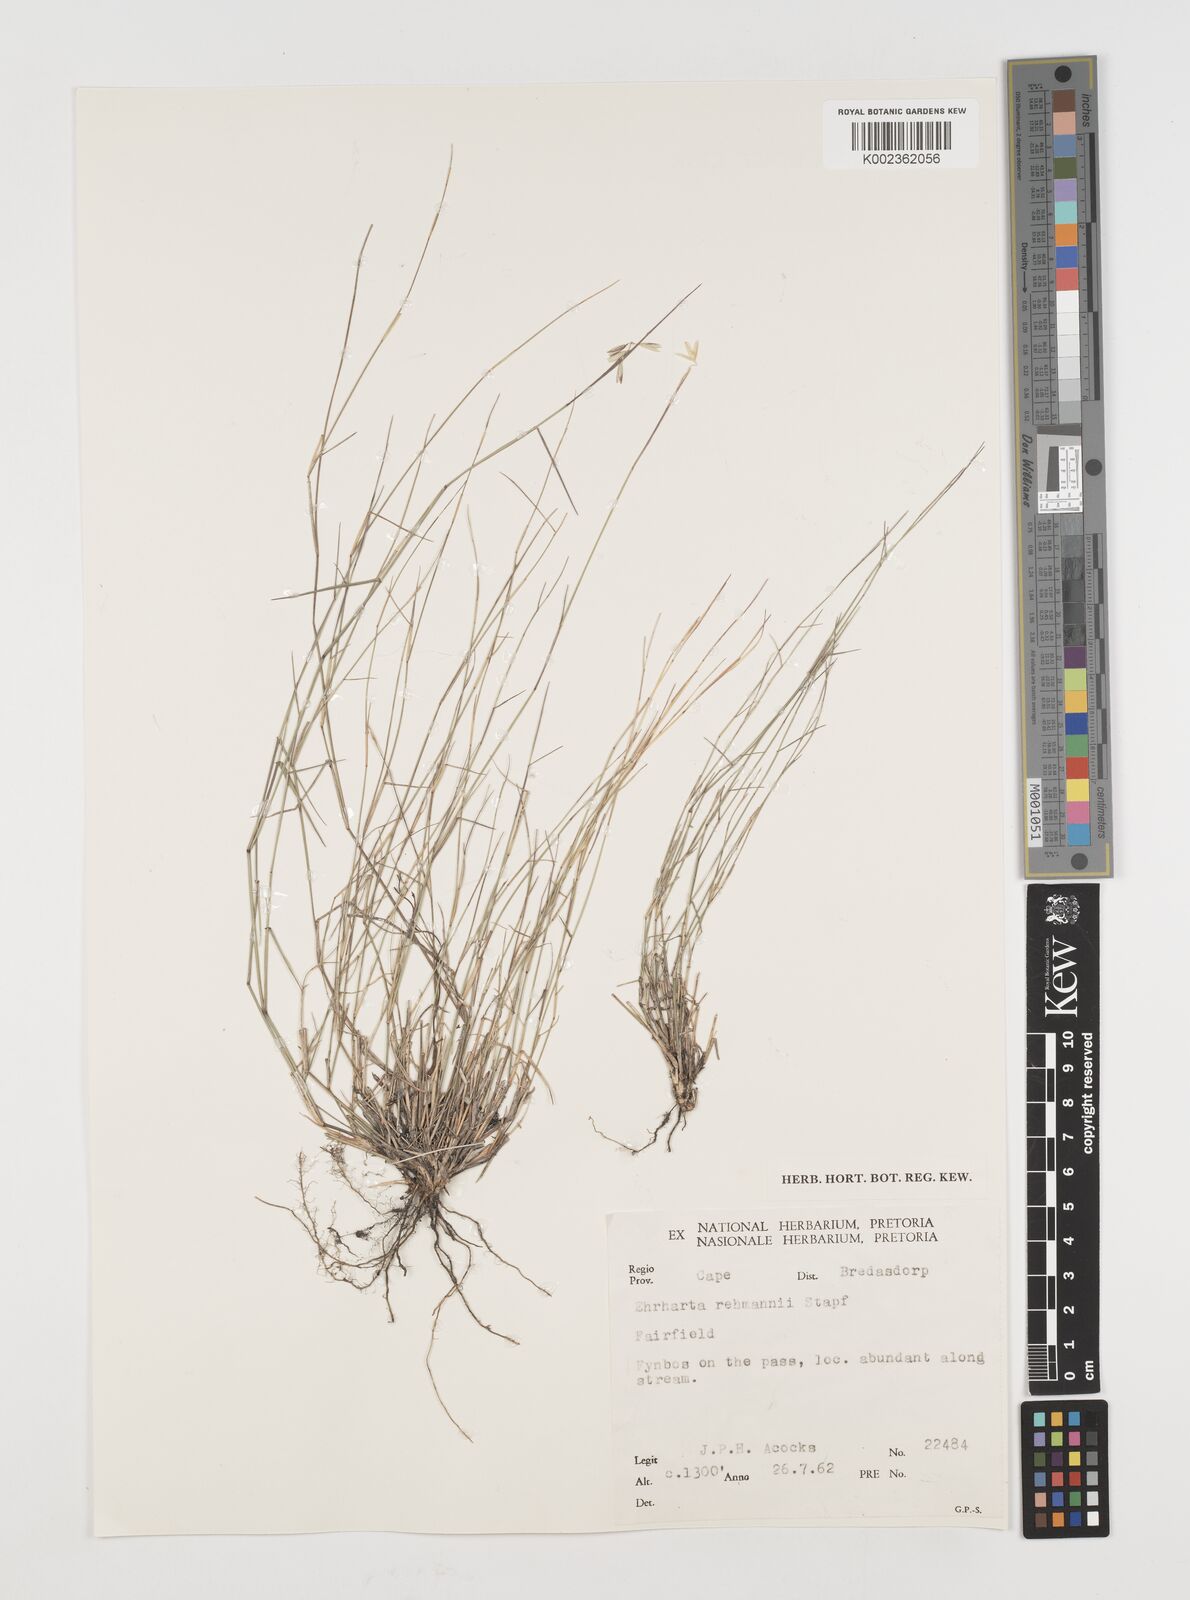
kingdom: Plantae
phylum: Tracheophyta
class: Liliopsida
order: Poales
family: Poaceae
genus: Ehrharta
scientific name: Ehrharta rehmannii
